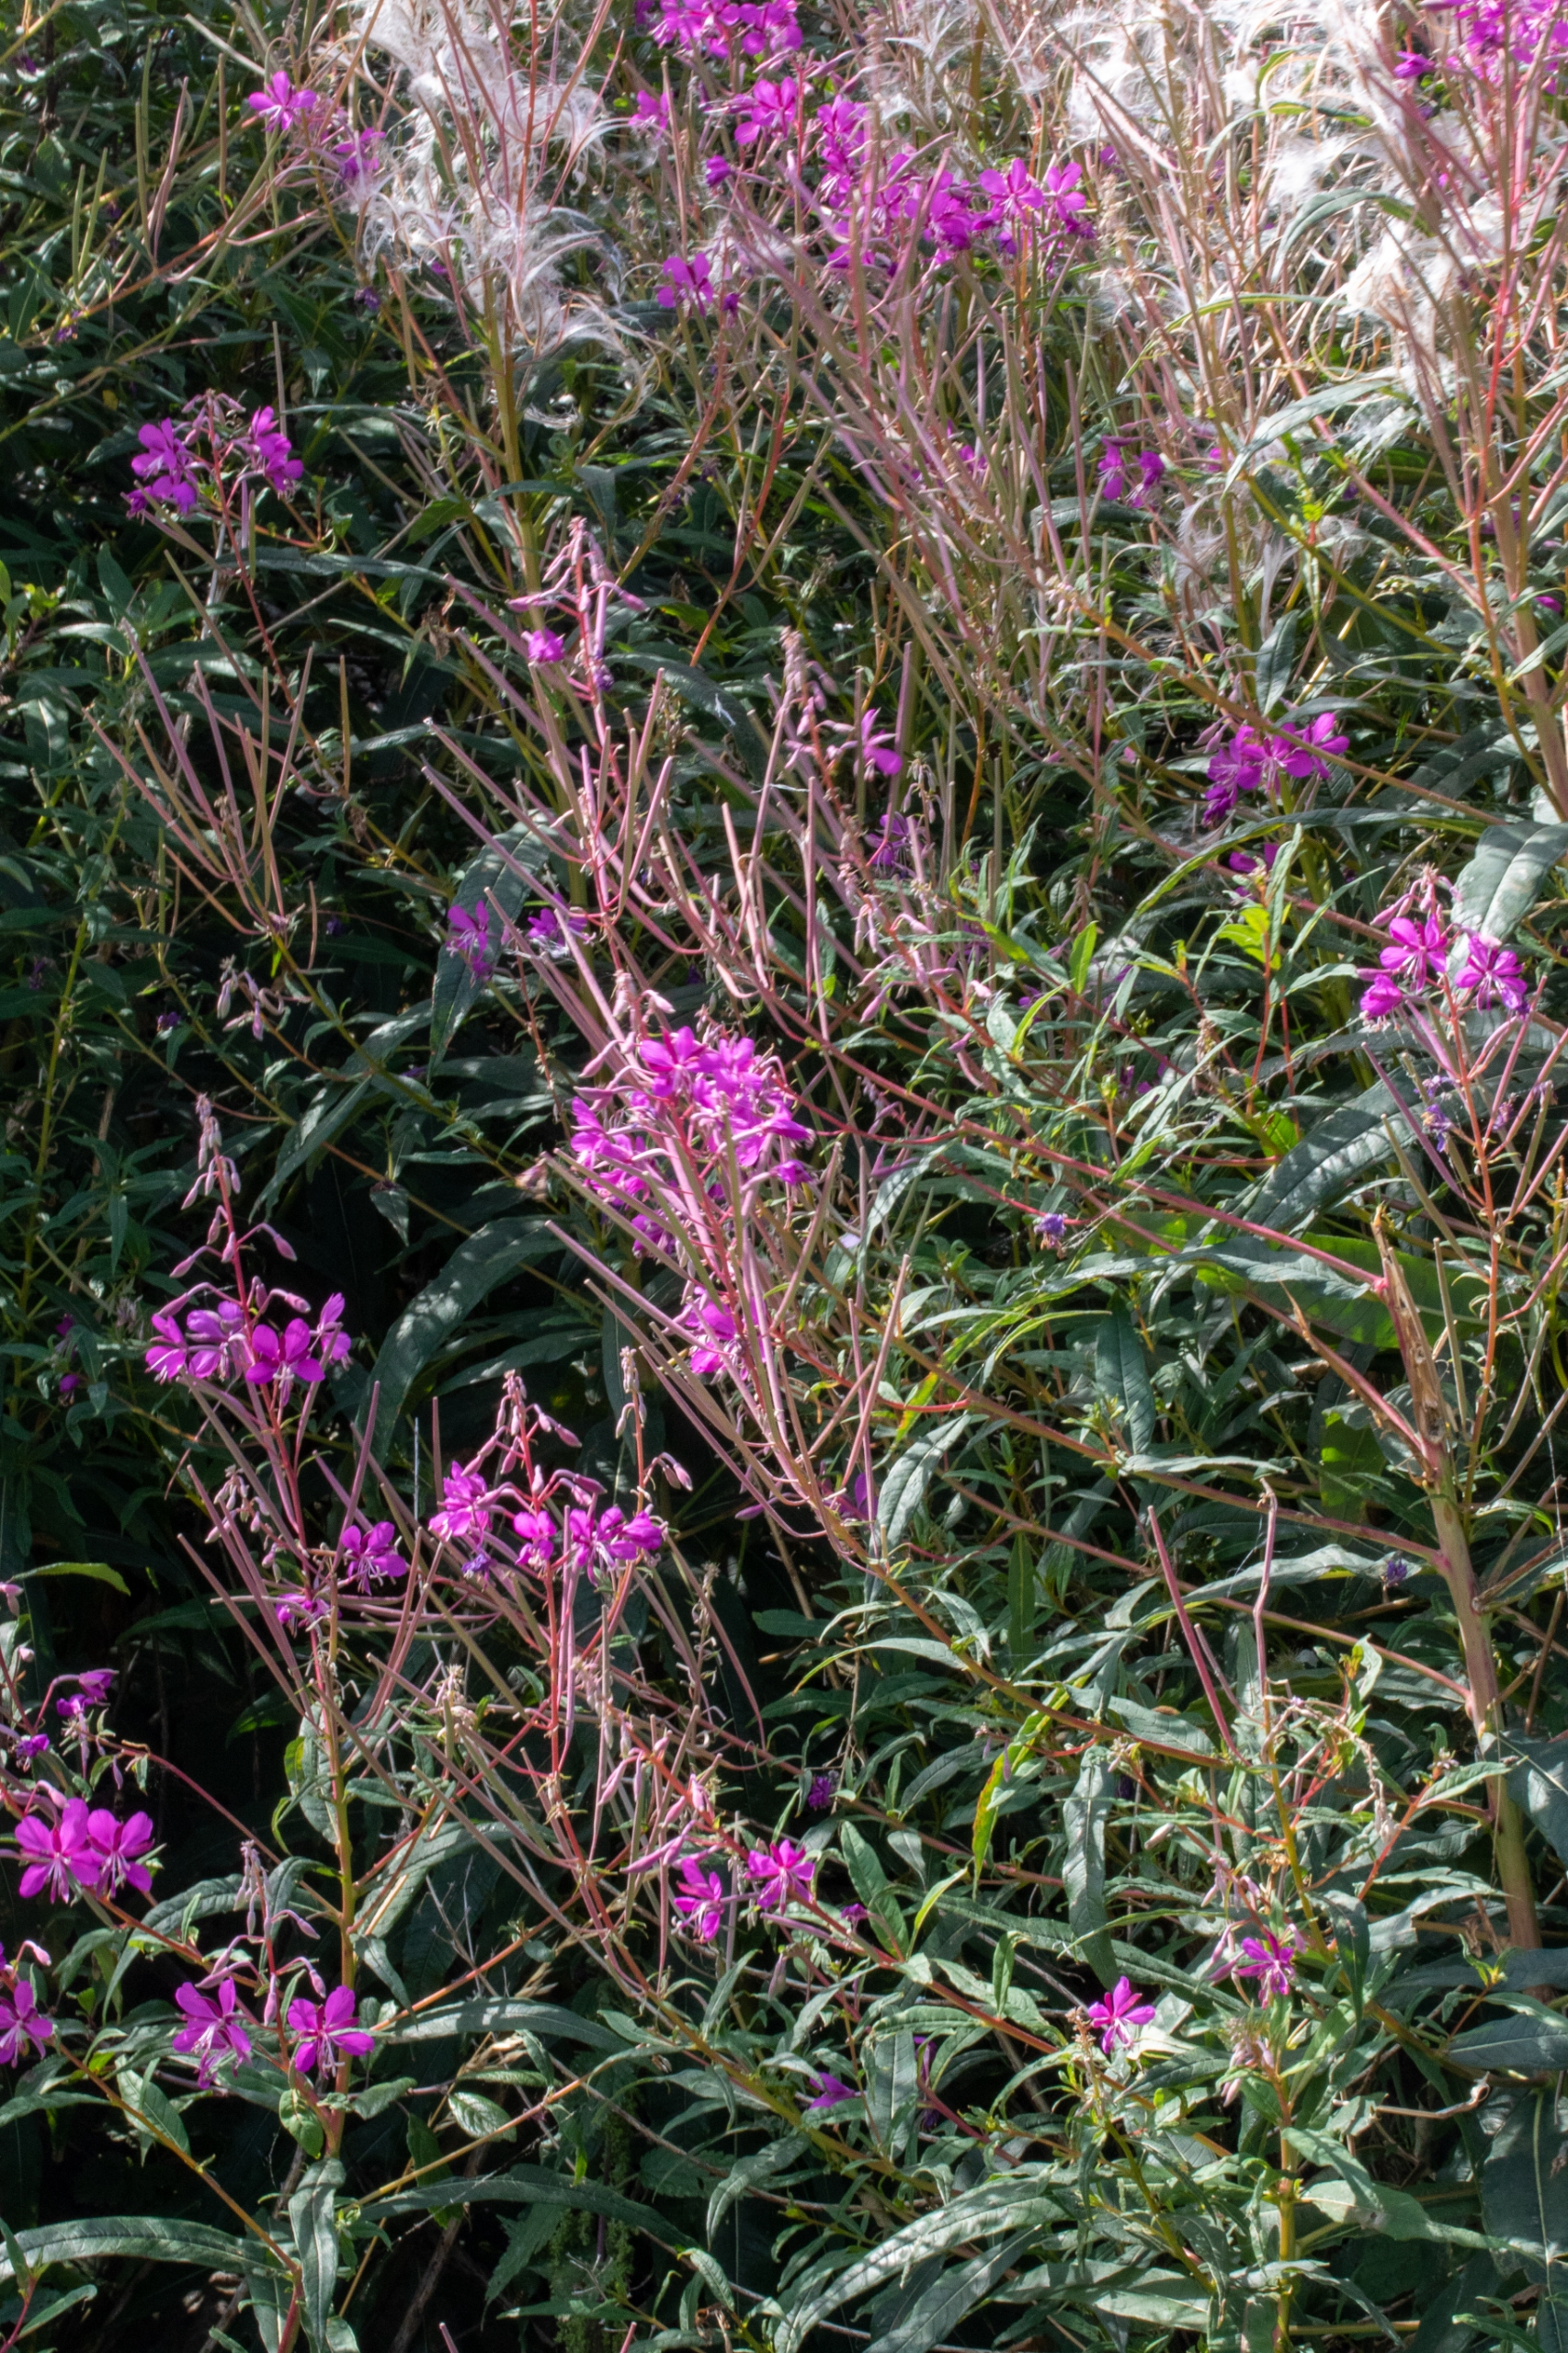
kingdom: Plantae
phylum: Tracheophyta
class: Magnoliopsida
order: Myrtales
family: Onagraceae
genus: Chamaenerion
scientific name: Chamaenerion angustifolium
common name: Gederams
